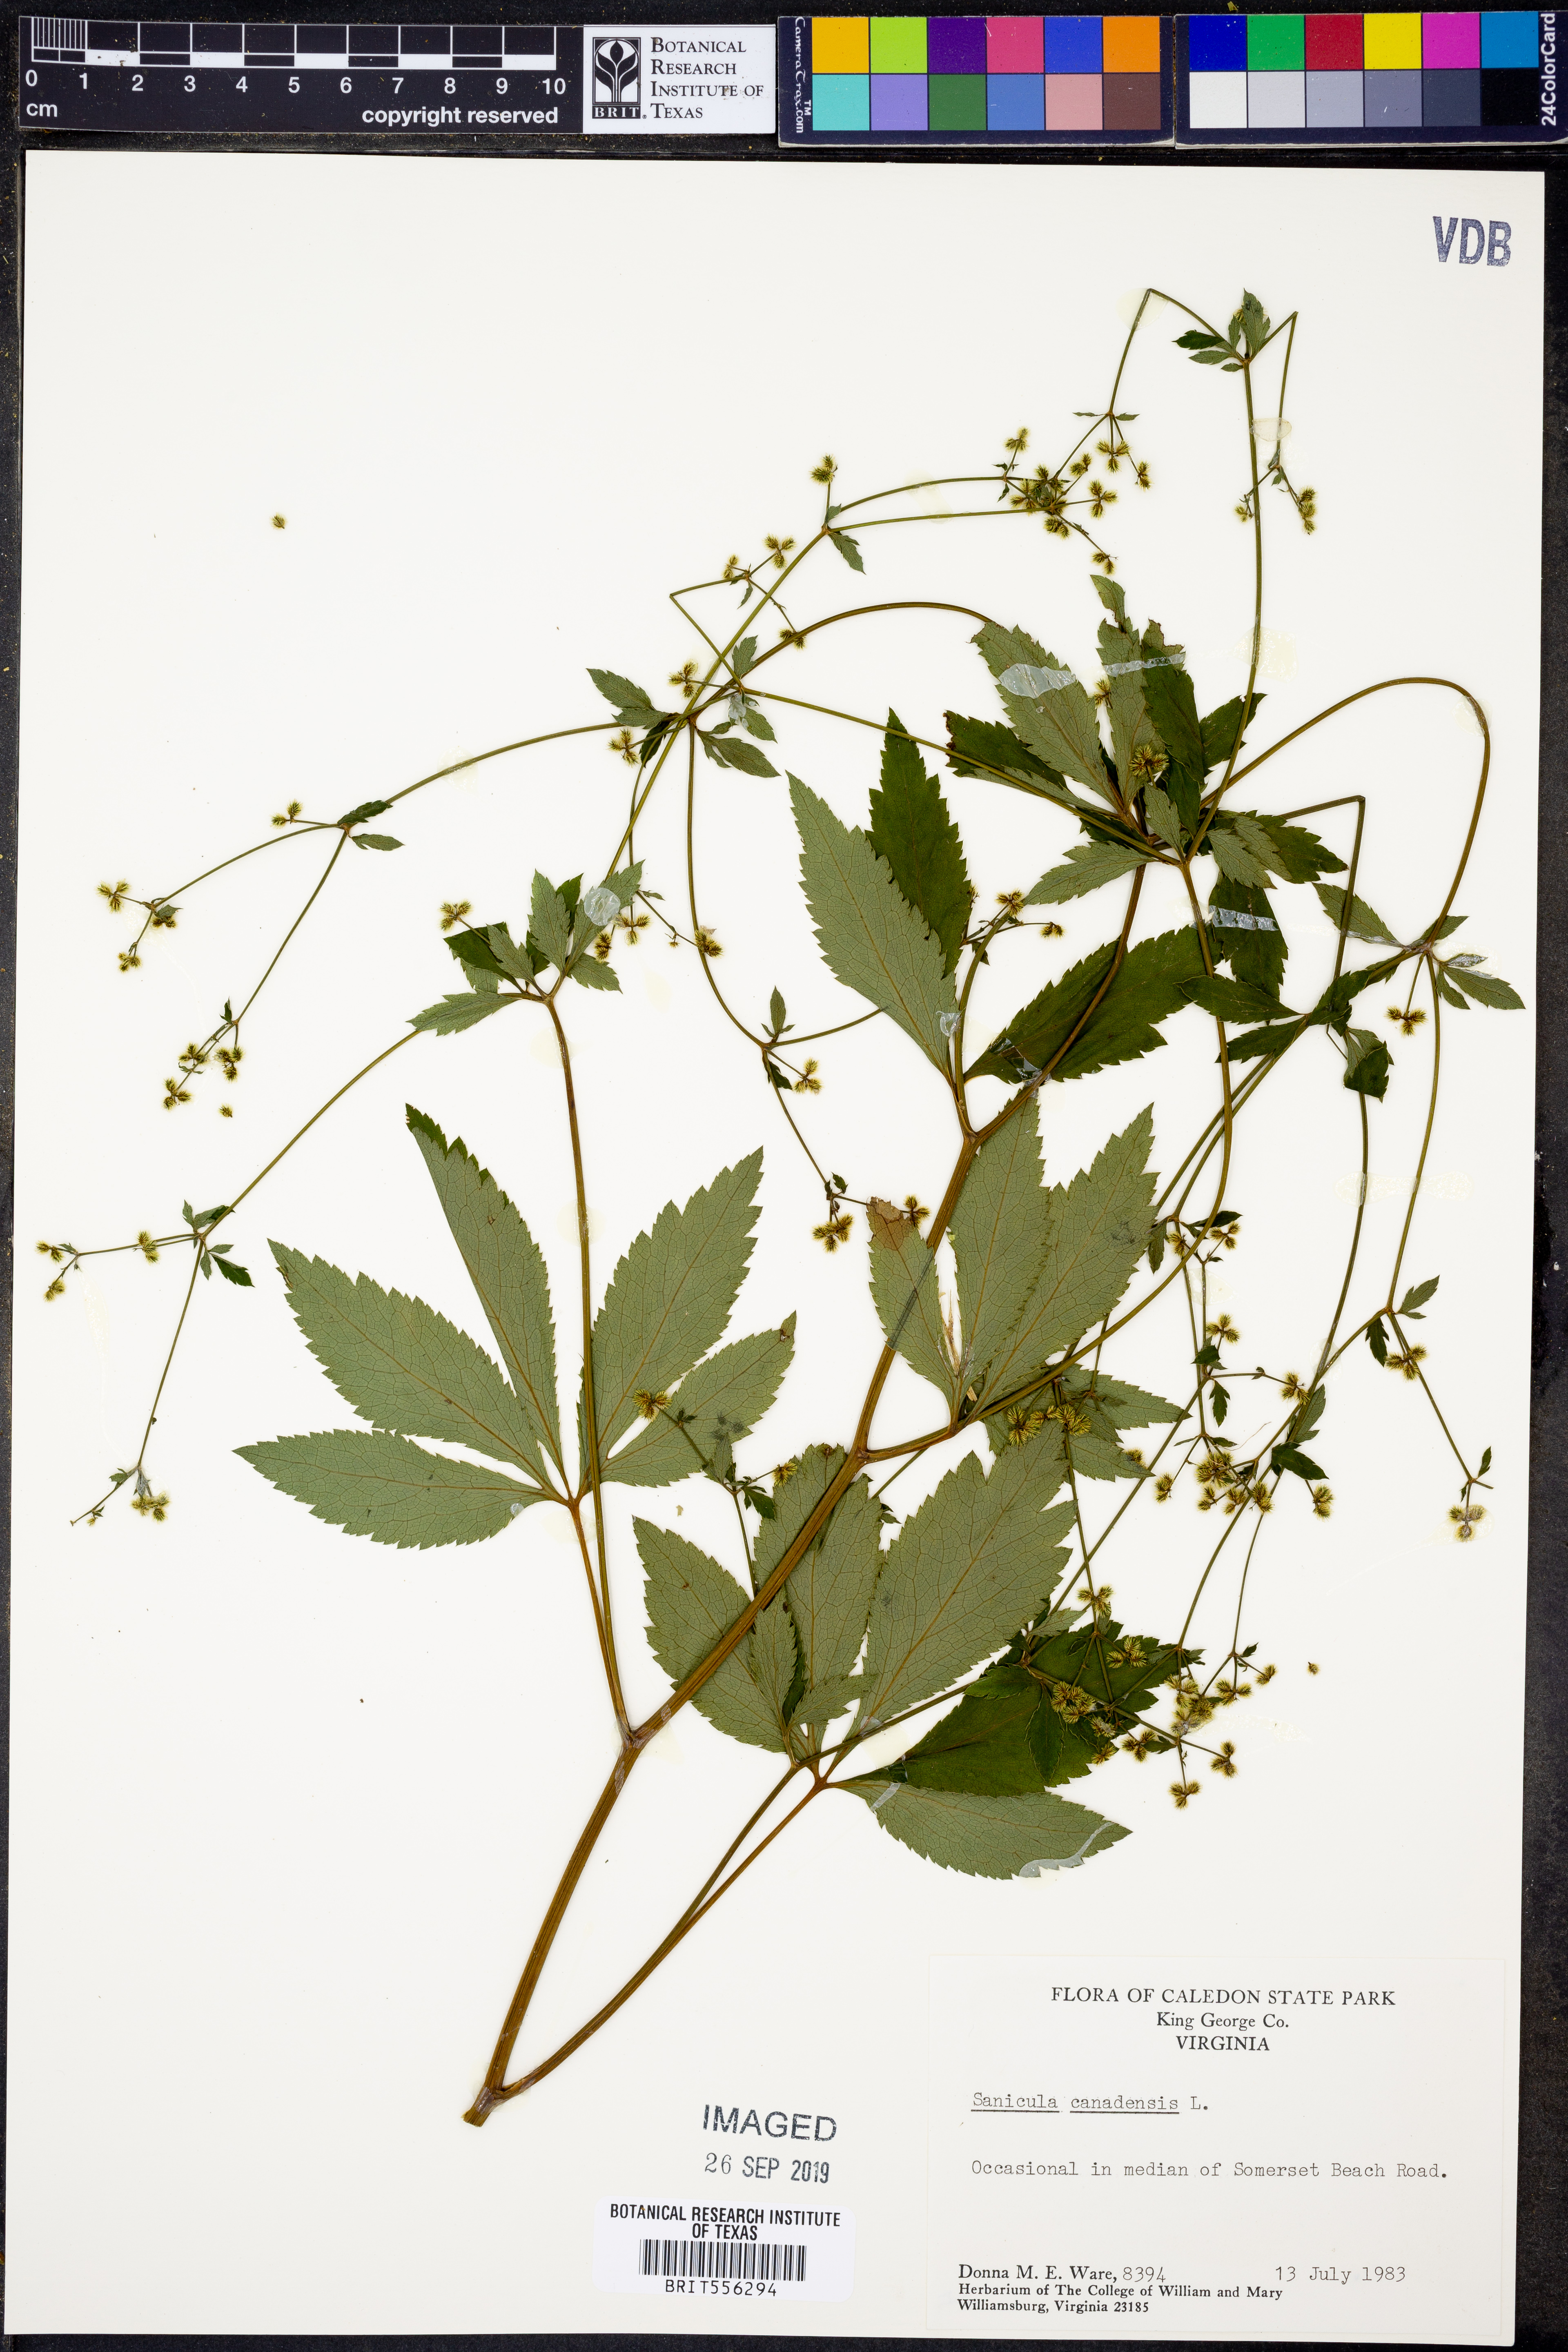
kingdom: Plantae
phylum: Tracheophyta
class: Magnoliopsida
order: Apiales
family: Apiaceae
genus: Sanicula
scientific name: Sanicula canadensis
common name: Canada sanicle
